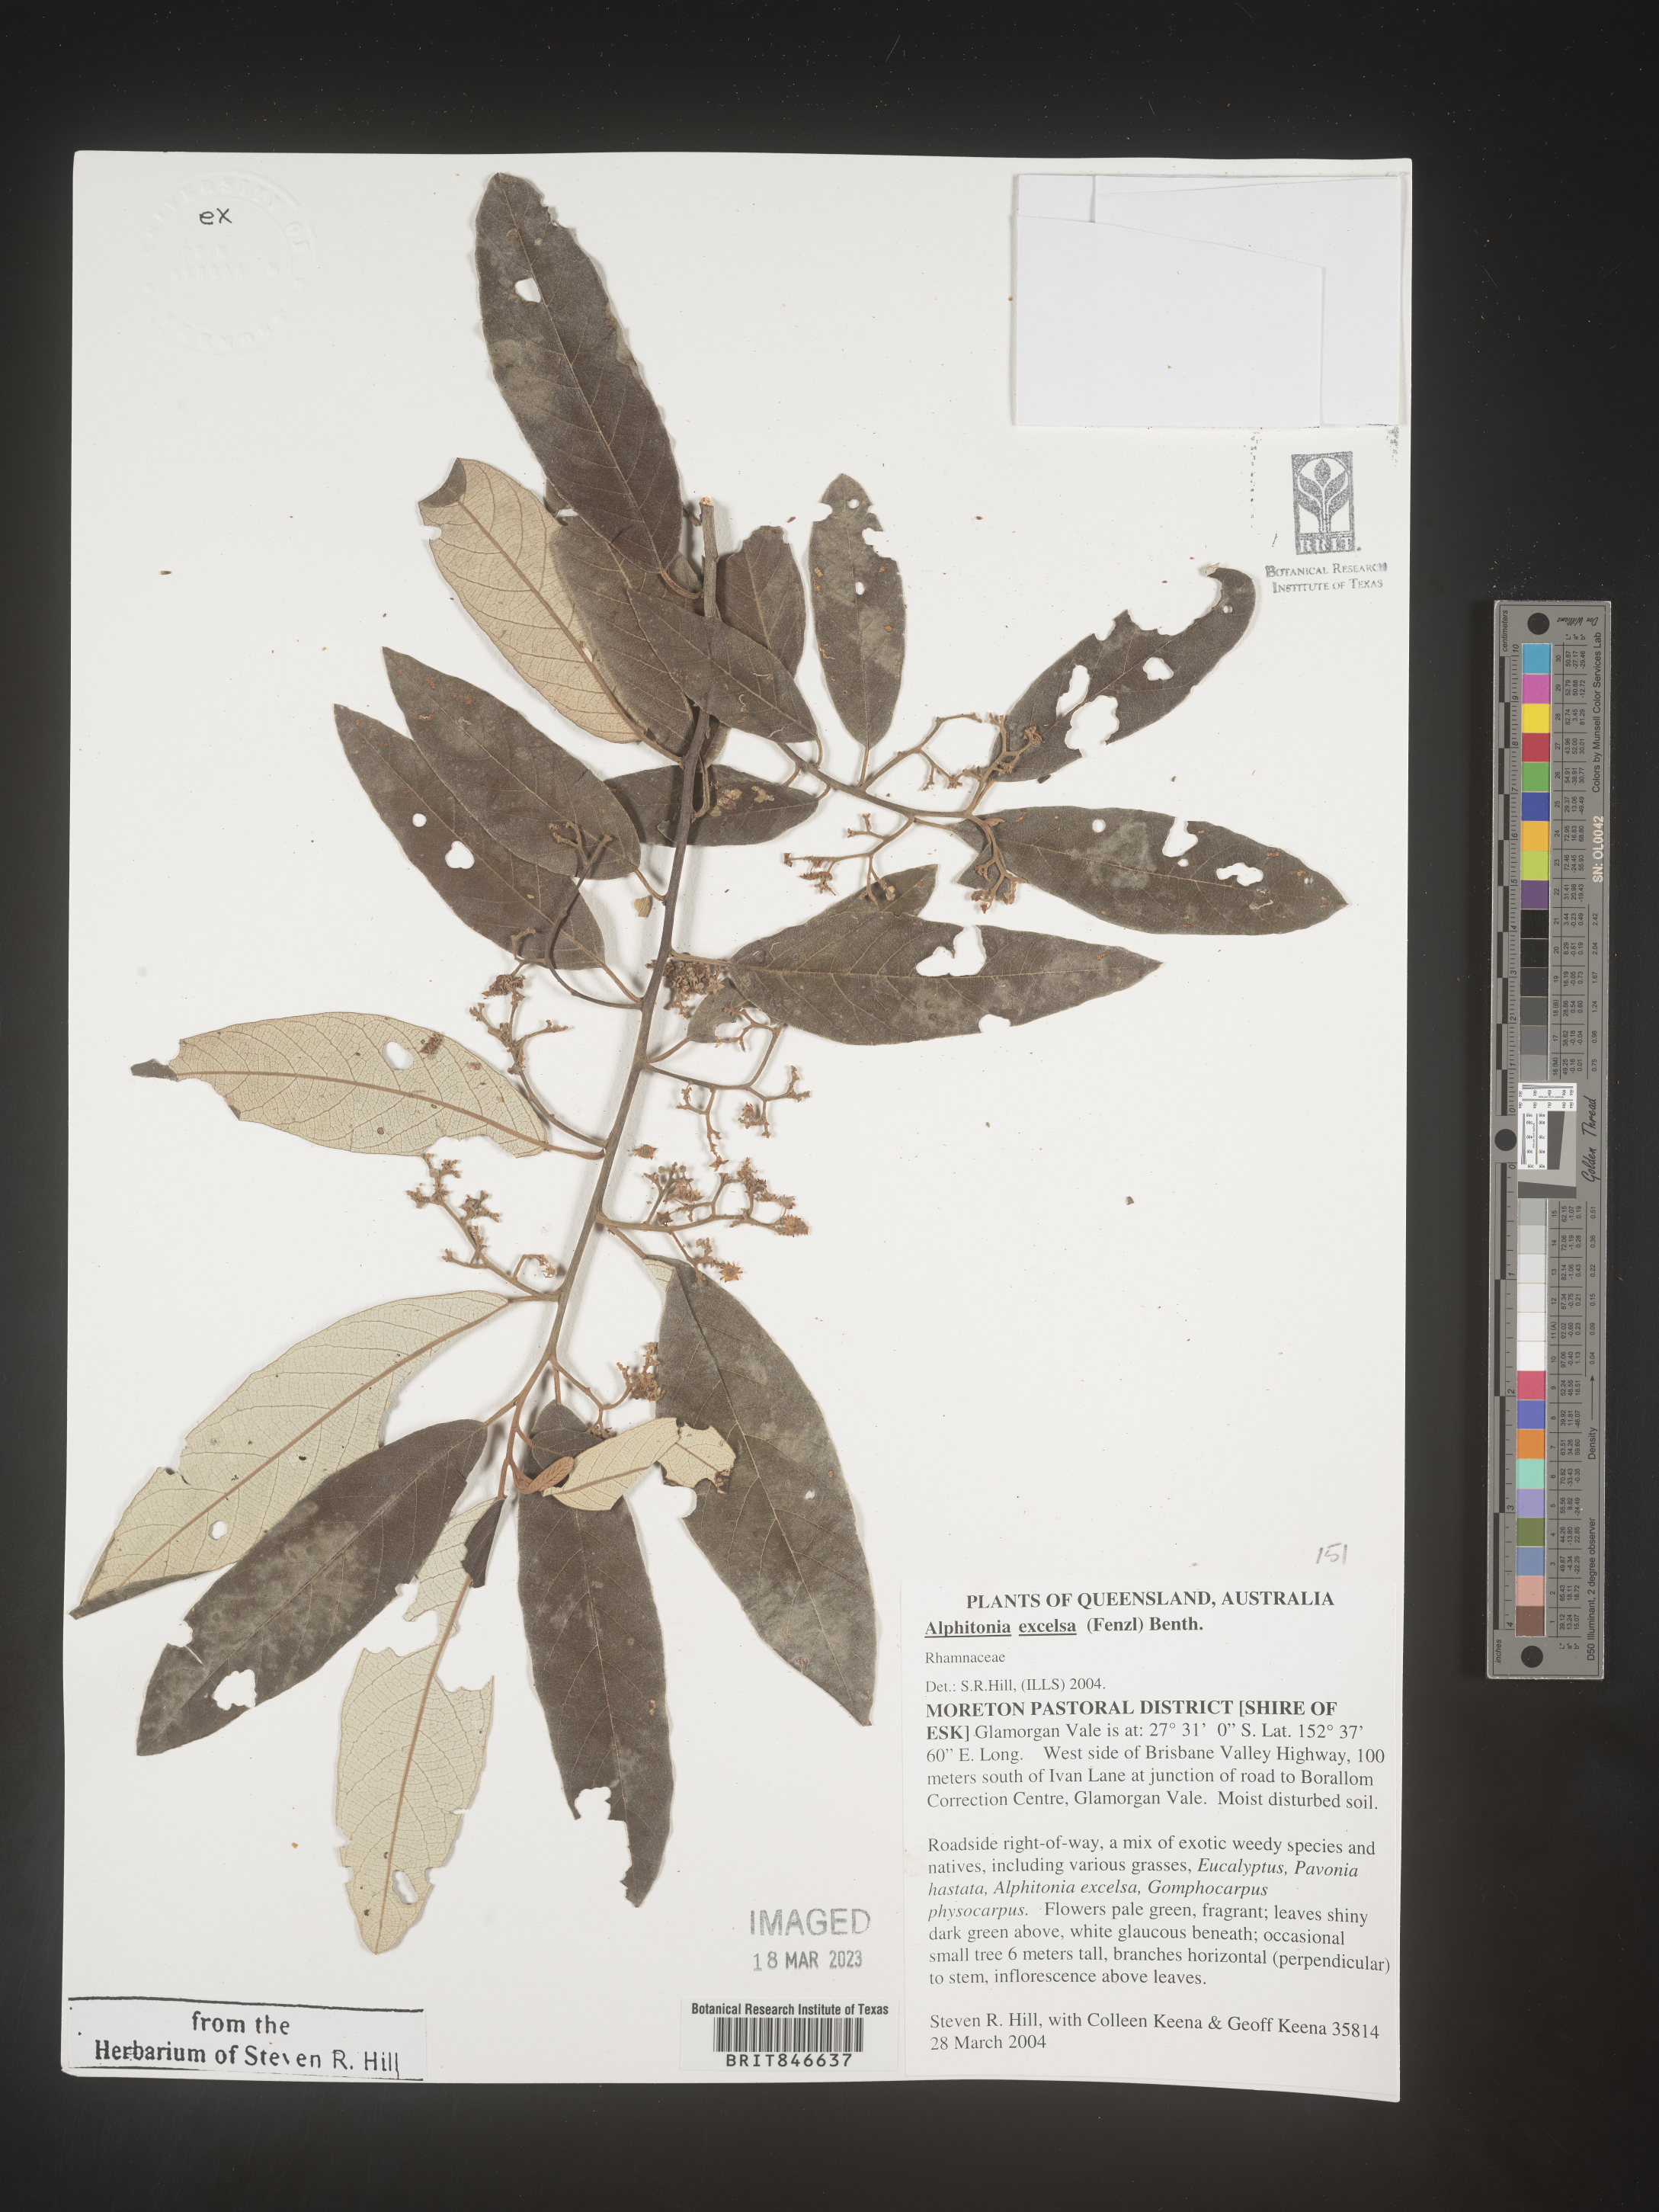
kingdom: Plantae
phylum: Tracheophyta
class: Magnoliopsida
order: Rosales
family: Rhamnaceae
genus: Alphitonia
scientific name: Alphitonia
